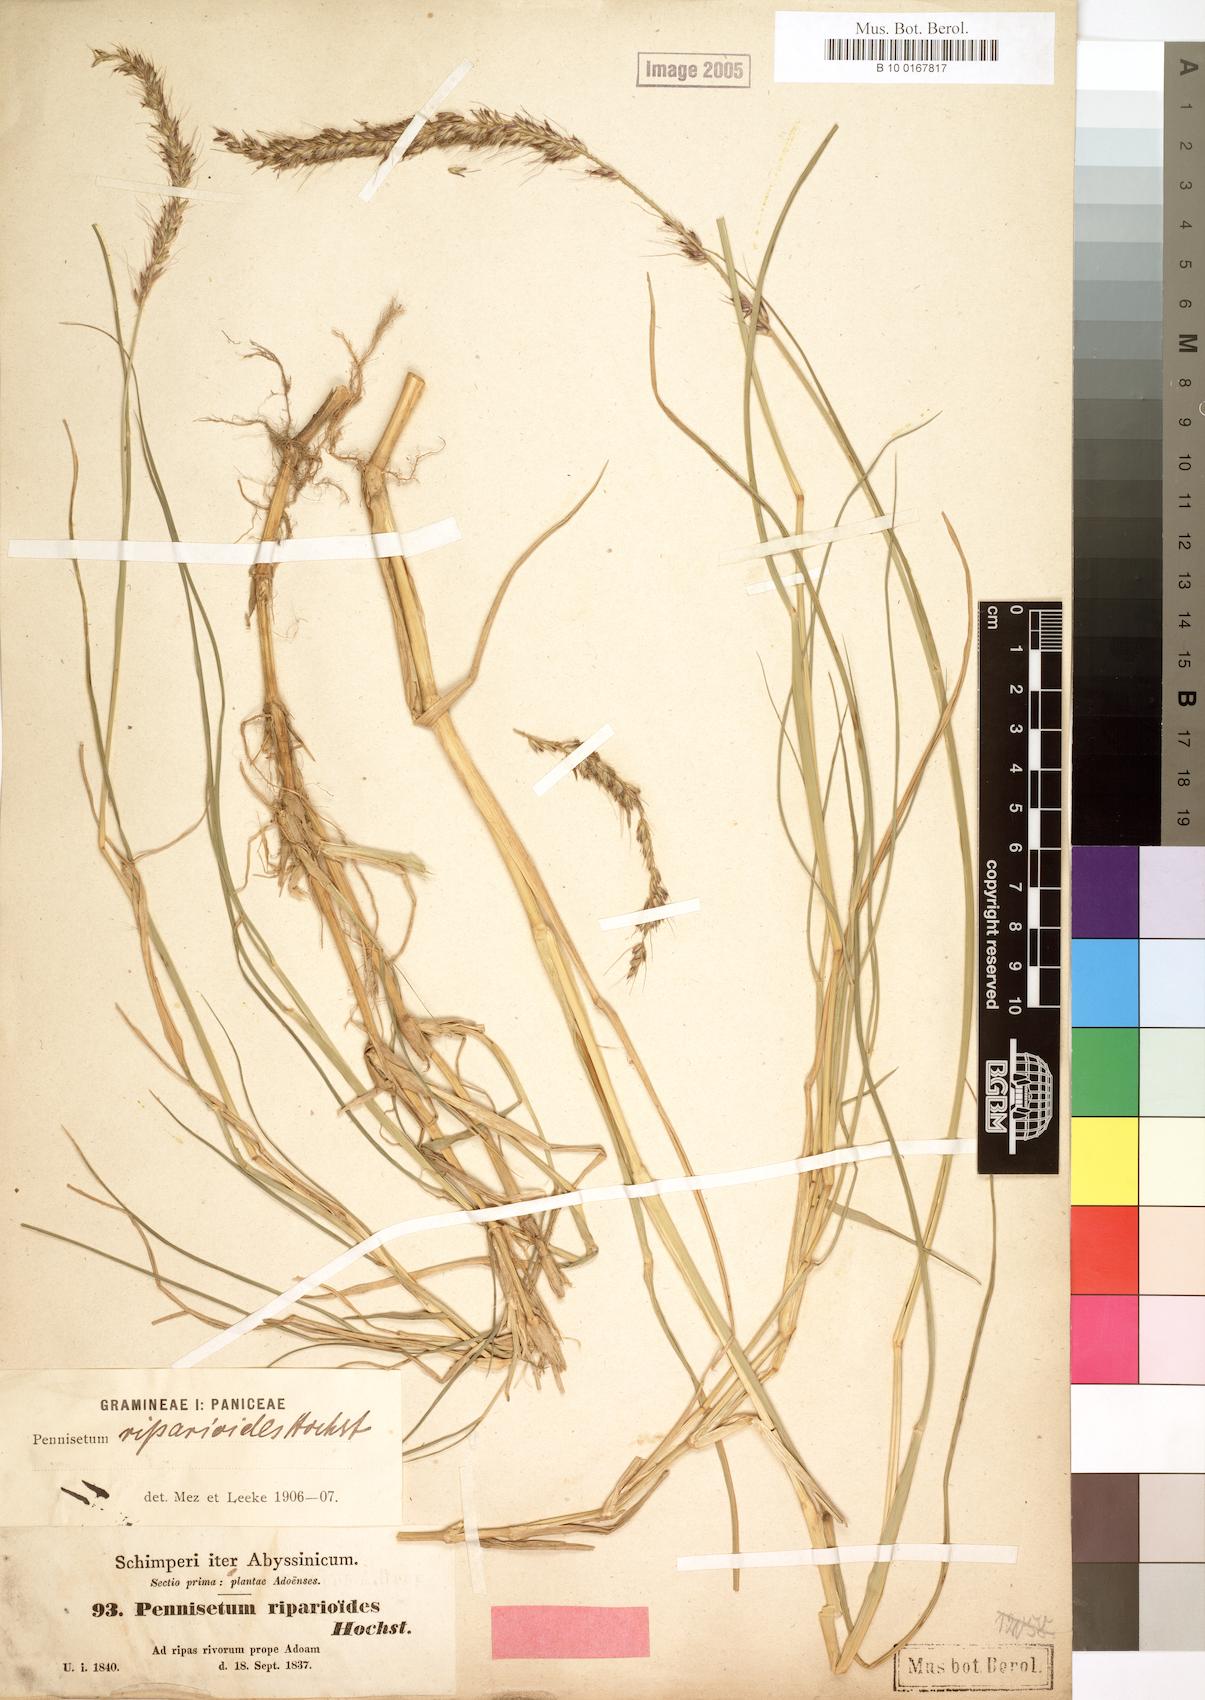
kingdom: Plantae
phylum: Tracheophyta
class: Liliopsida
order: Poales
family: Poaceae
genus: Cenchrus
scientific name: Cenchrus caudatus
